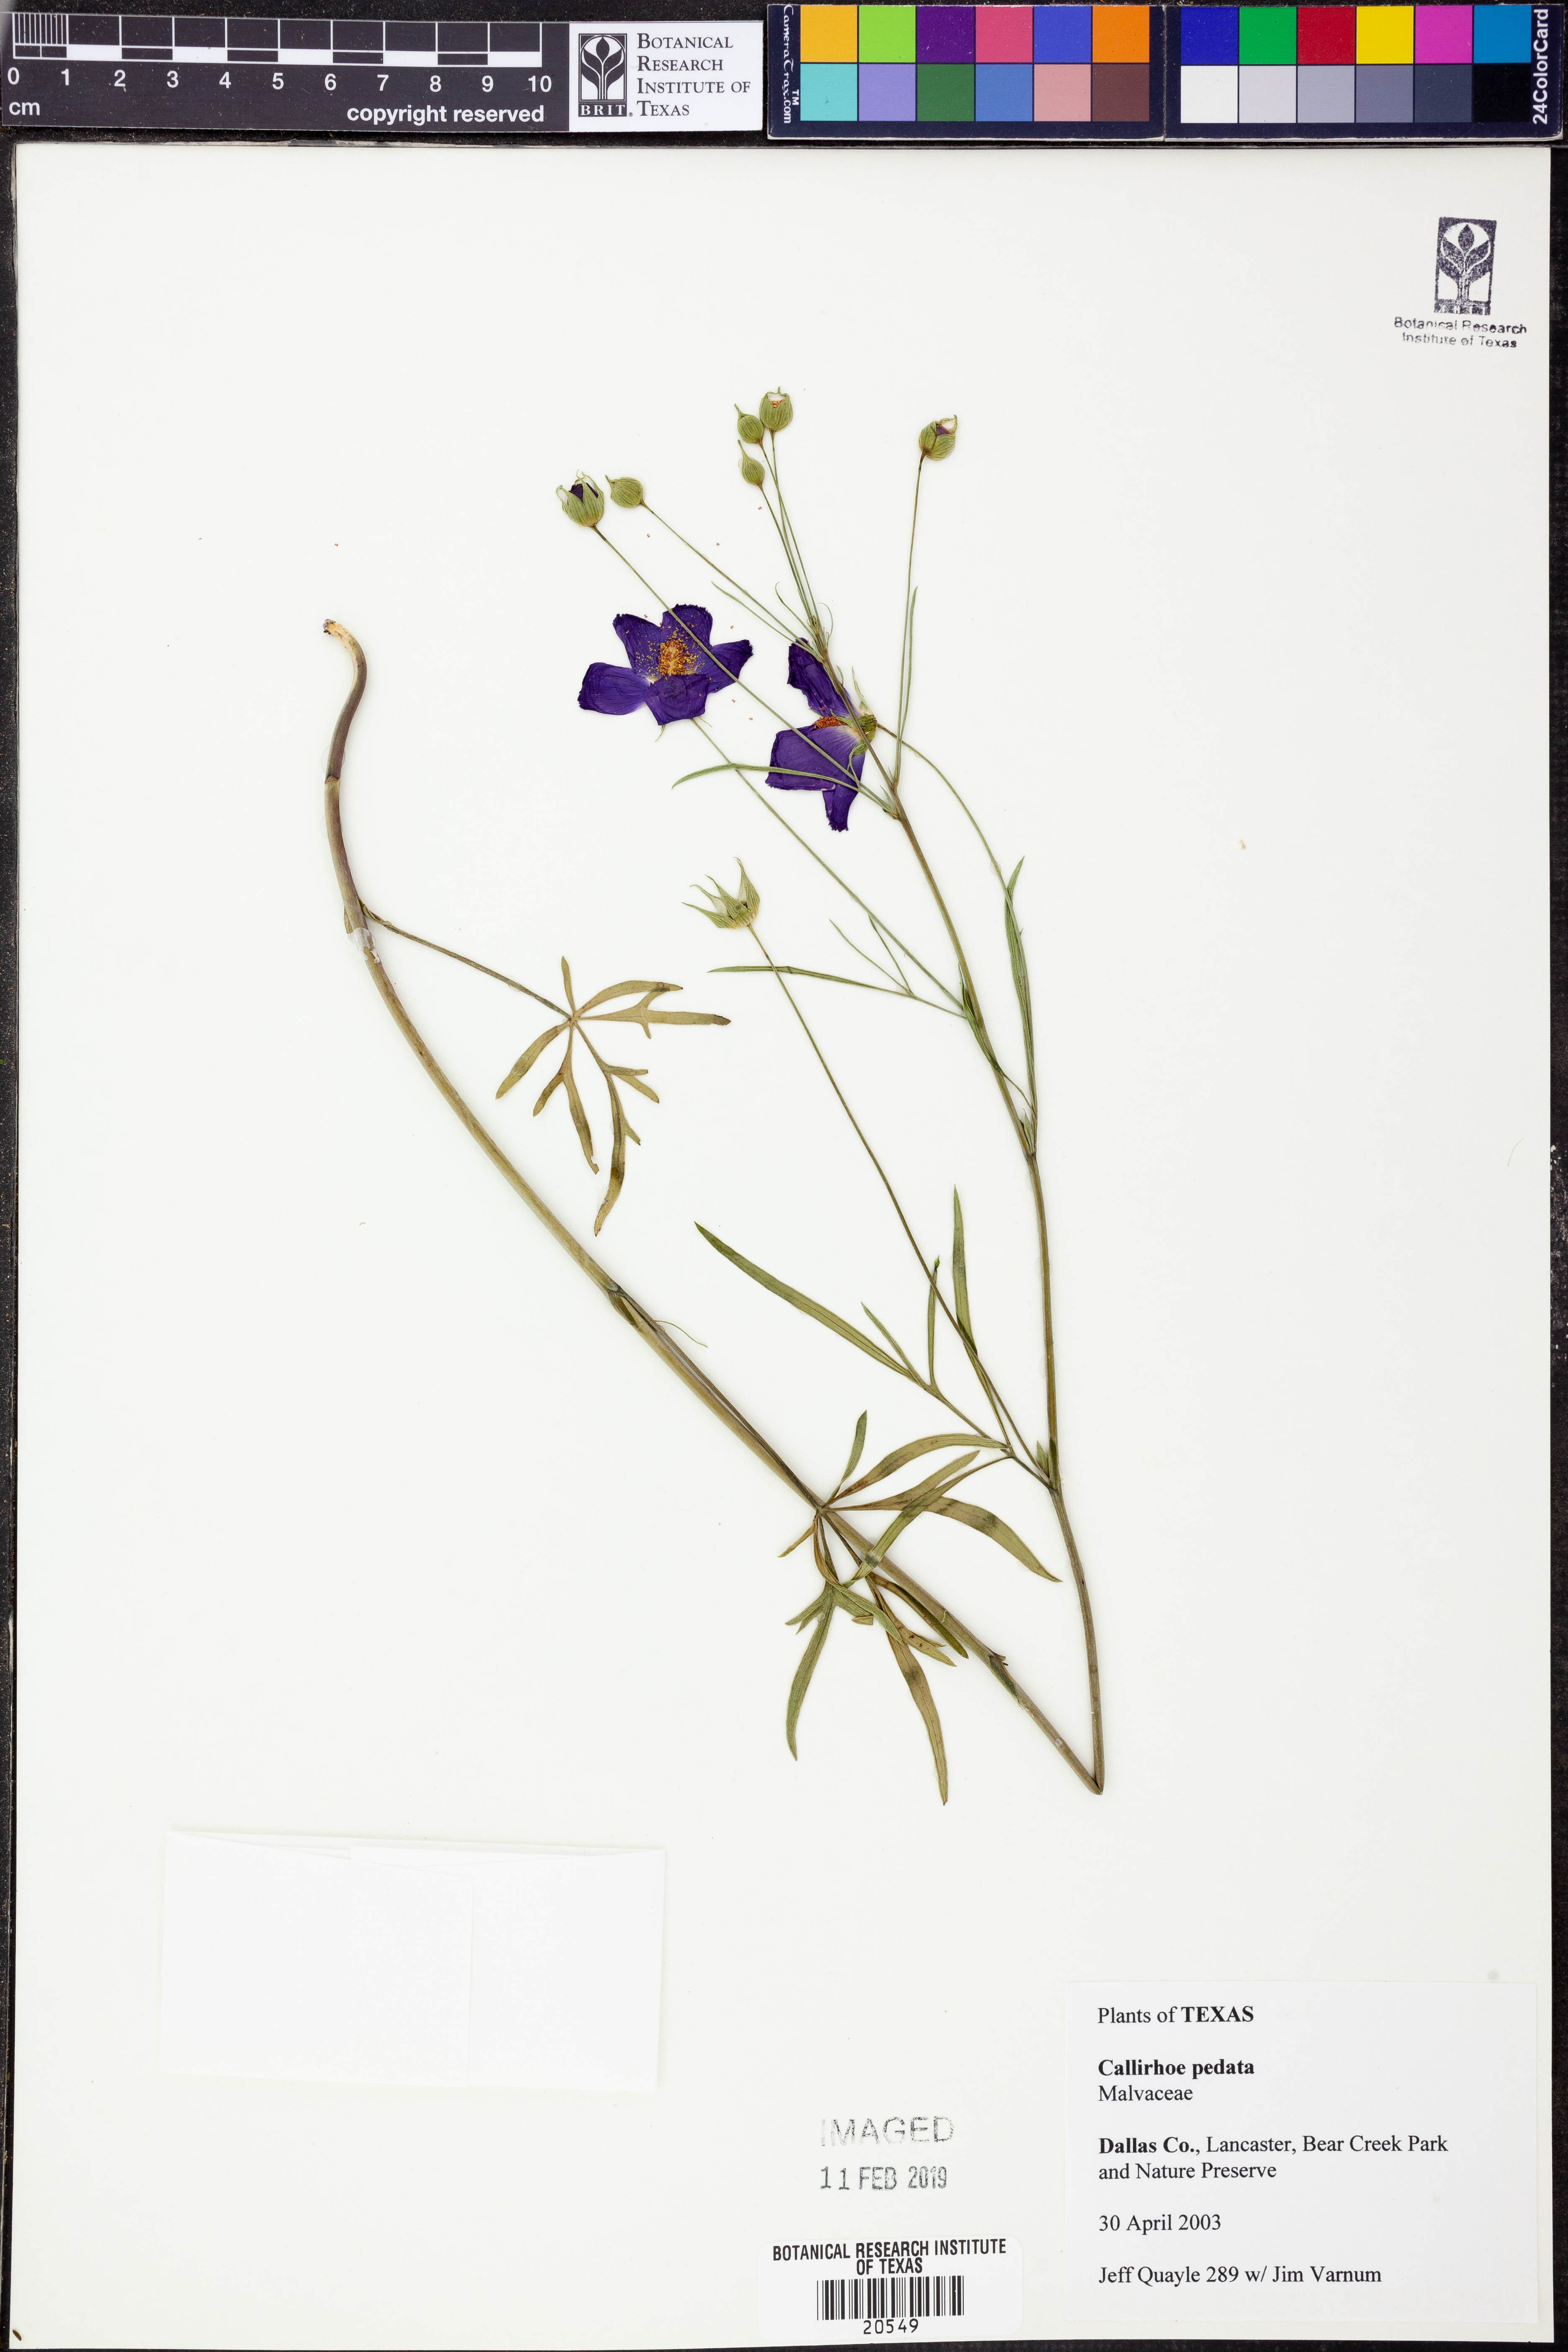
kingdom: Plantae
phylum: Tracheophyta
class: Magnoliopsida
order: Malvales
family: Malvaceae
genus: Callirhoe
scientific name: Callirhoe pedata
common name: Finger poppy-mallow
